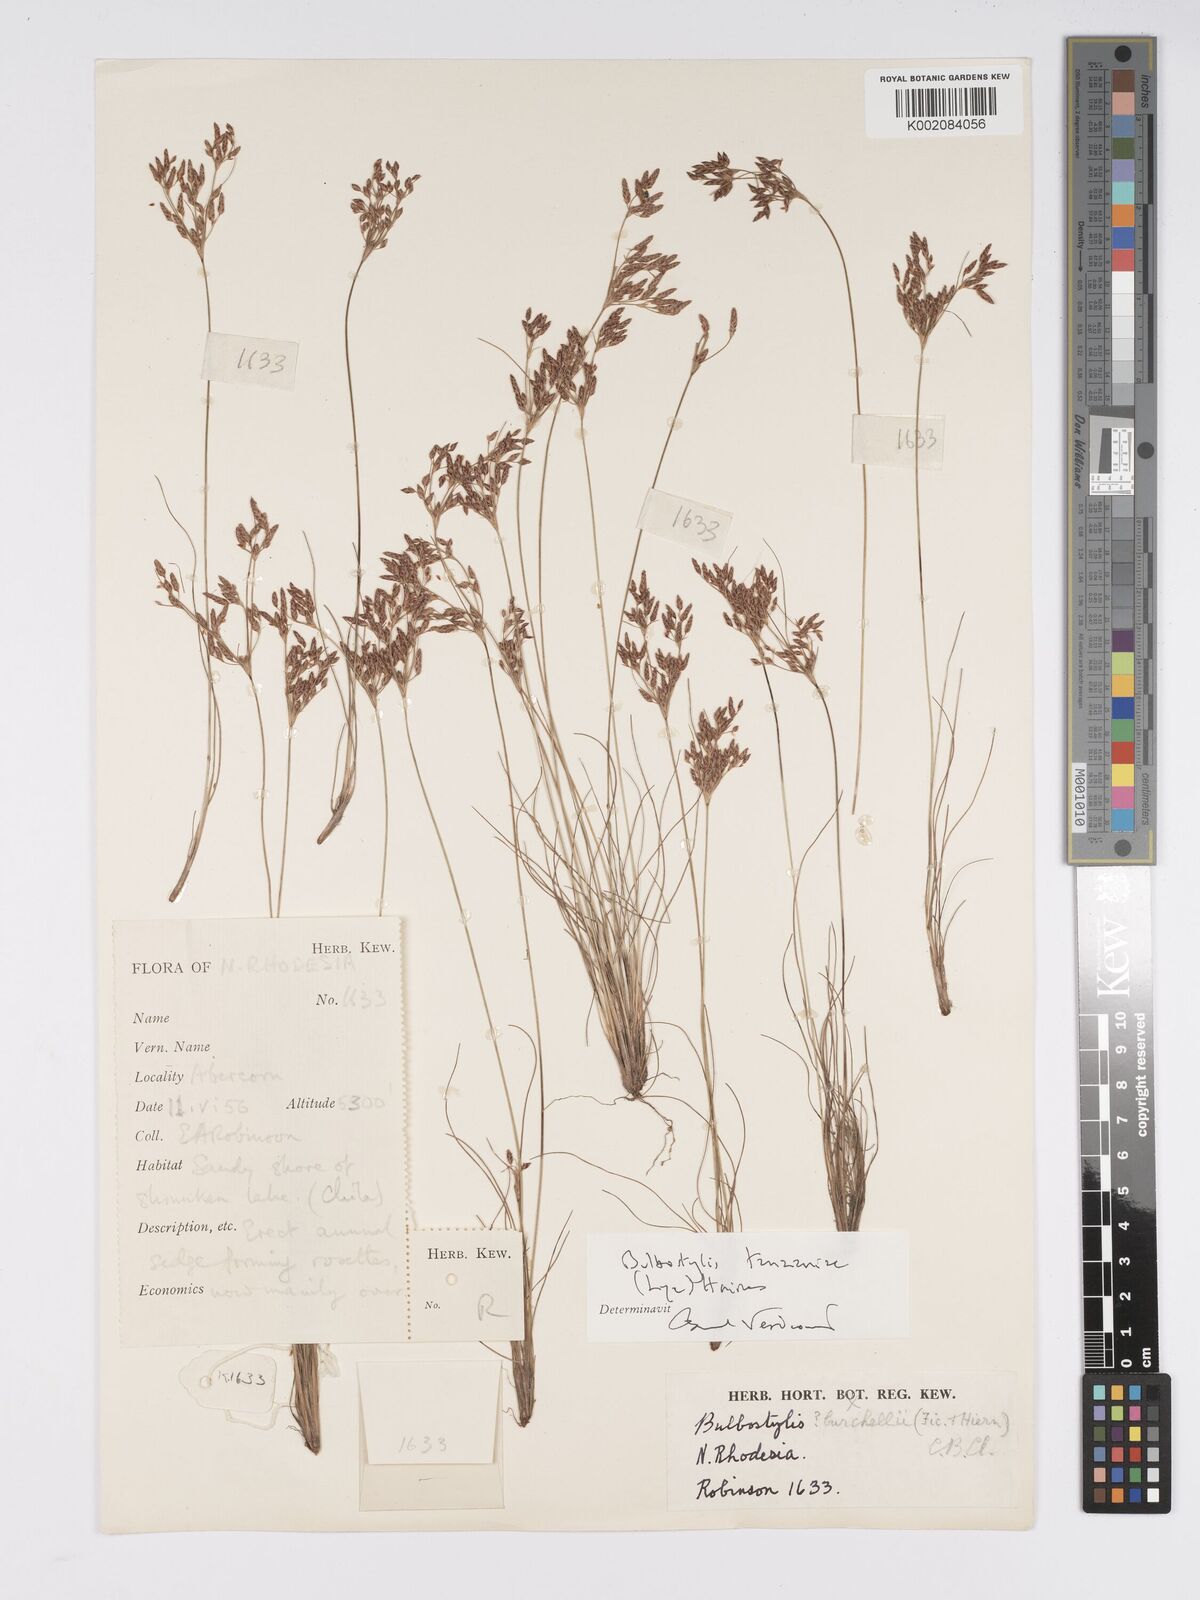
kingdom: Plantae
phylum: Tracheophyta
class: Liliopsida
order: Poales
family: Cyperaceae
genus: Bulbostylis
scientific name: Bulbostylis tanzaniae
